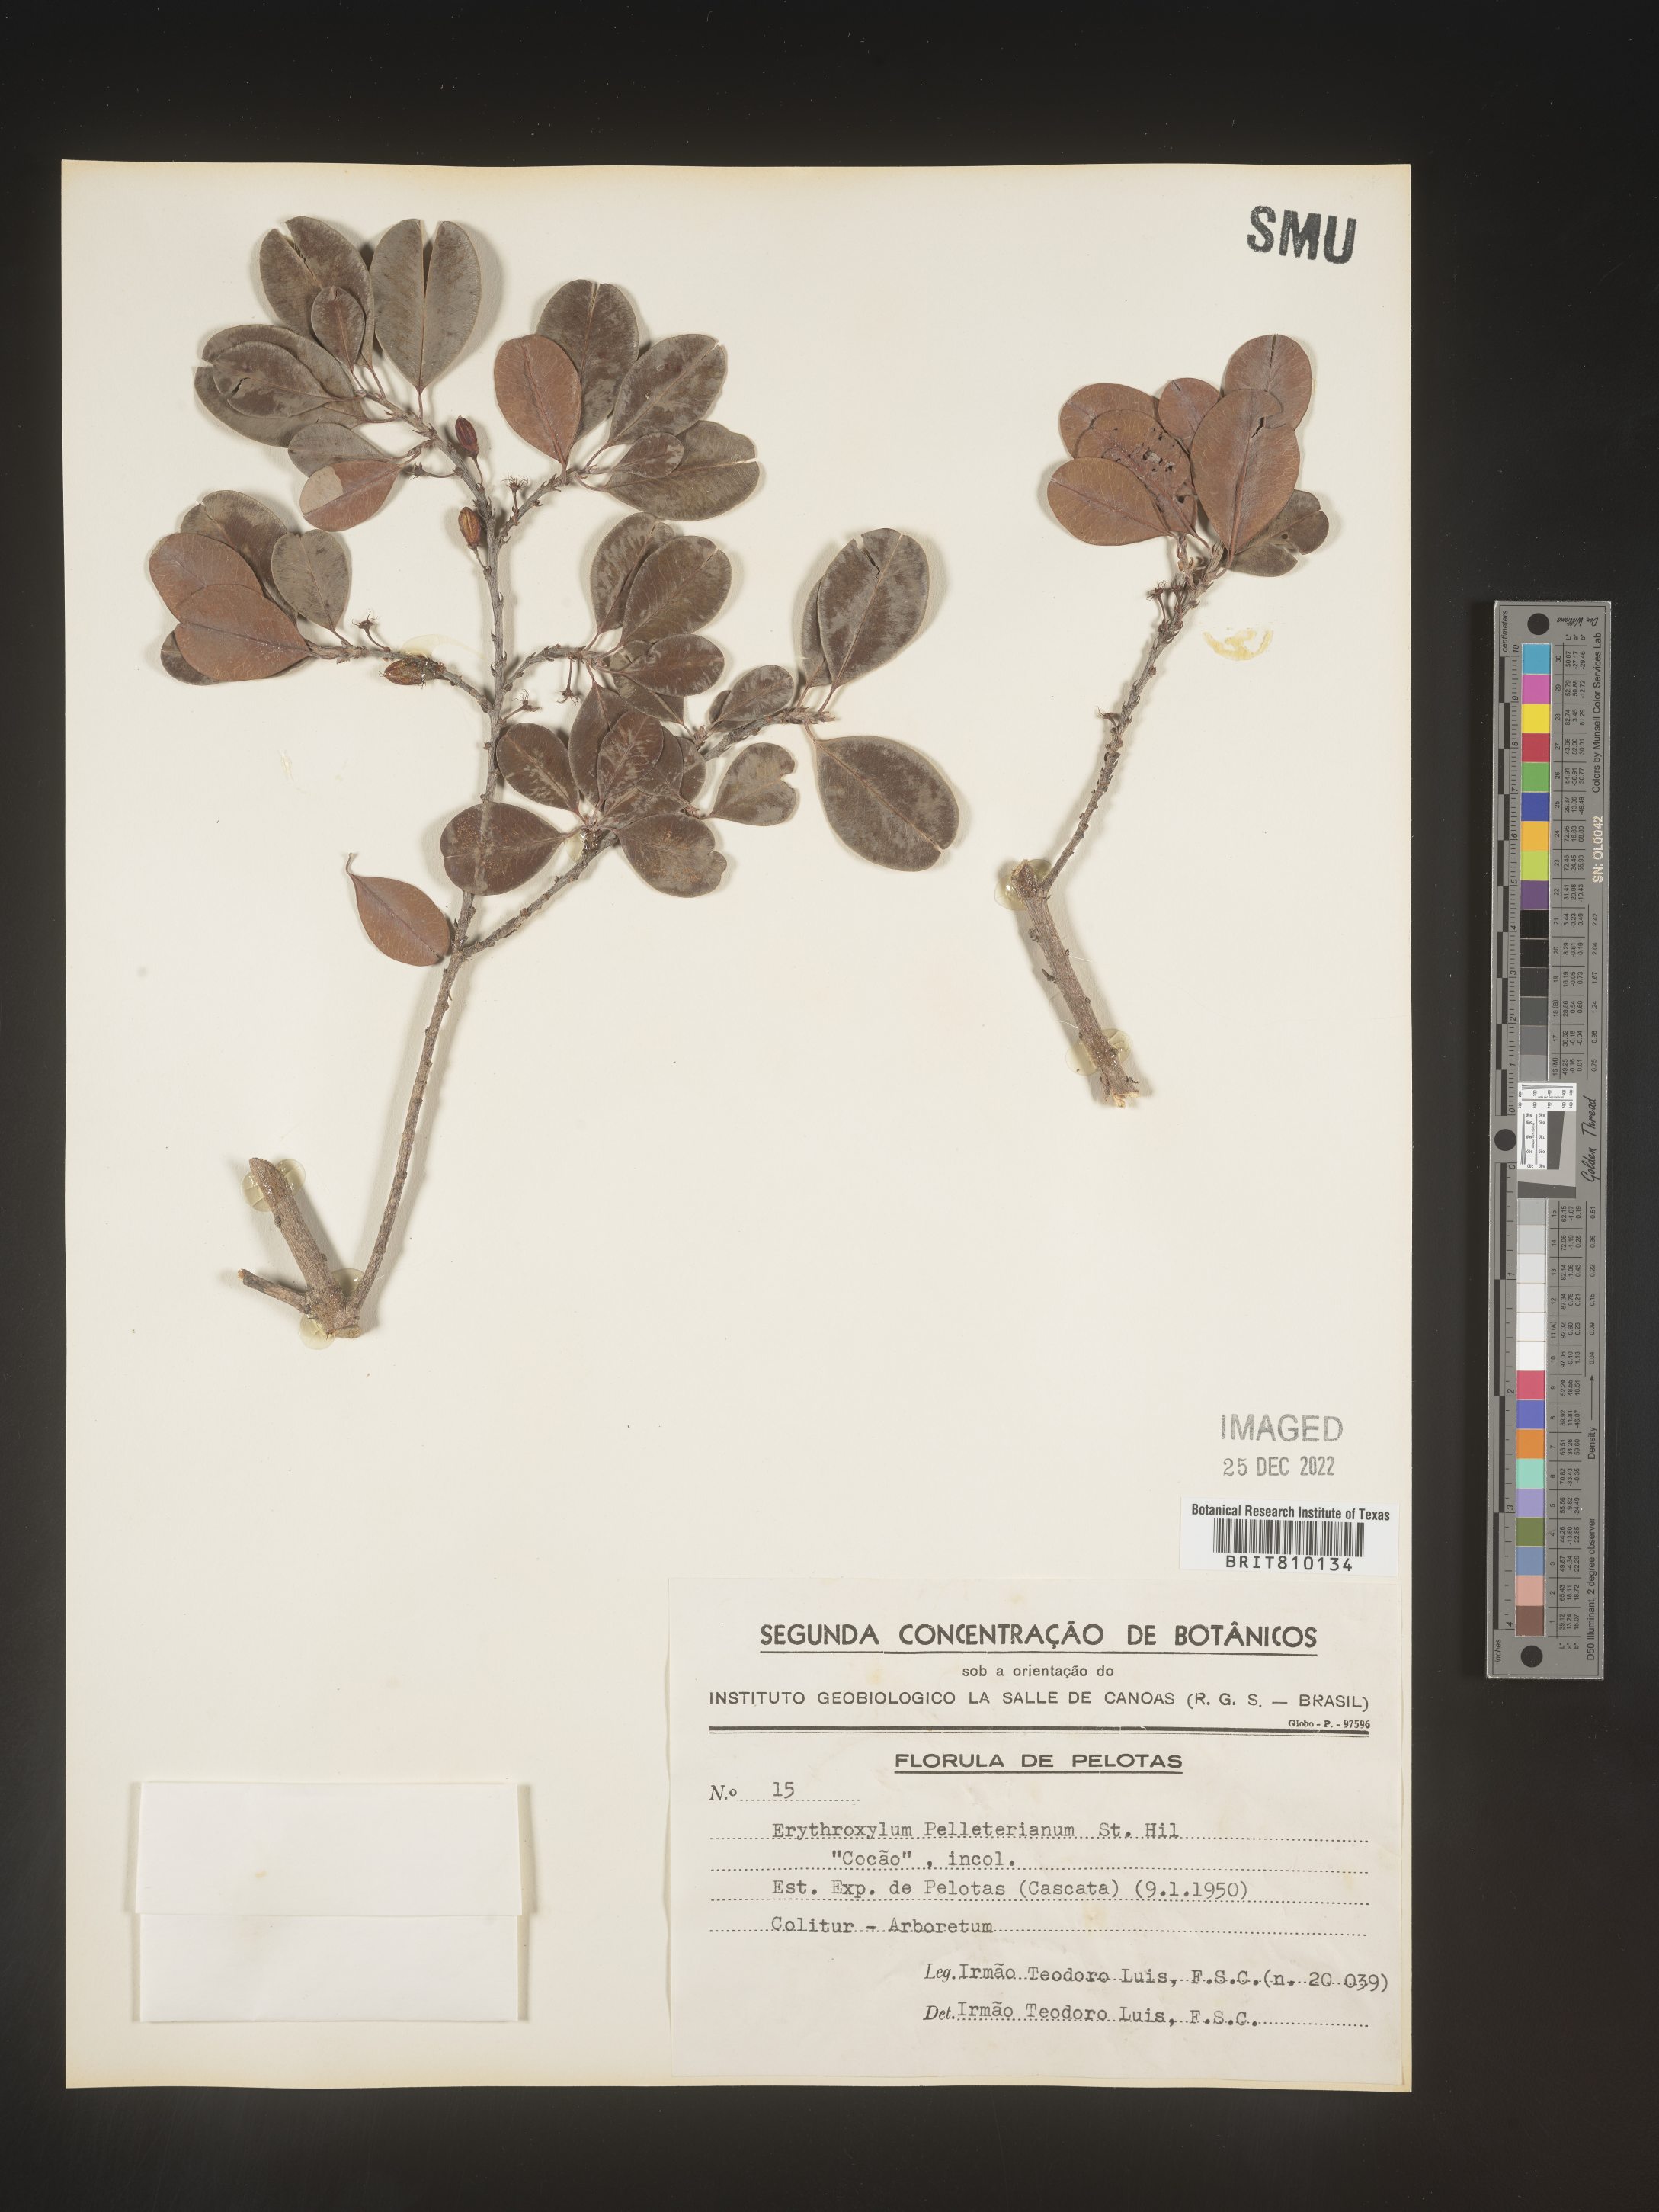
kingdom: Plantae
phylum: Tracheophyta
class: Magnoliopsida
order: Malpighiales
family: Erythroxylaceae
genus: Erythroxylum
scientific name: Erythroxylum
